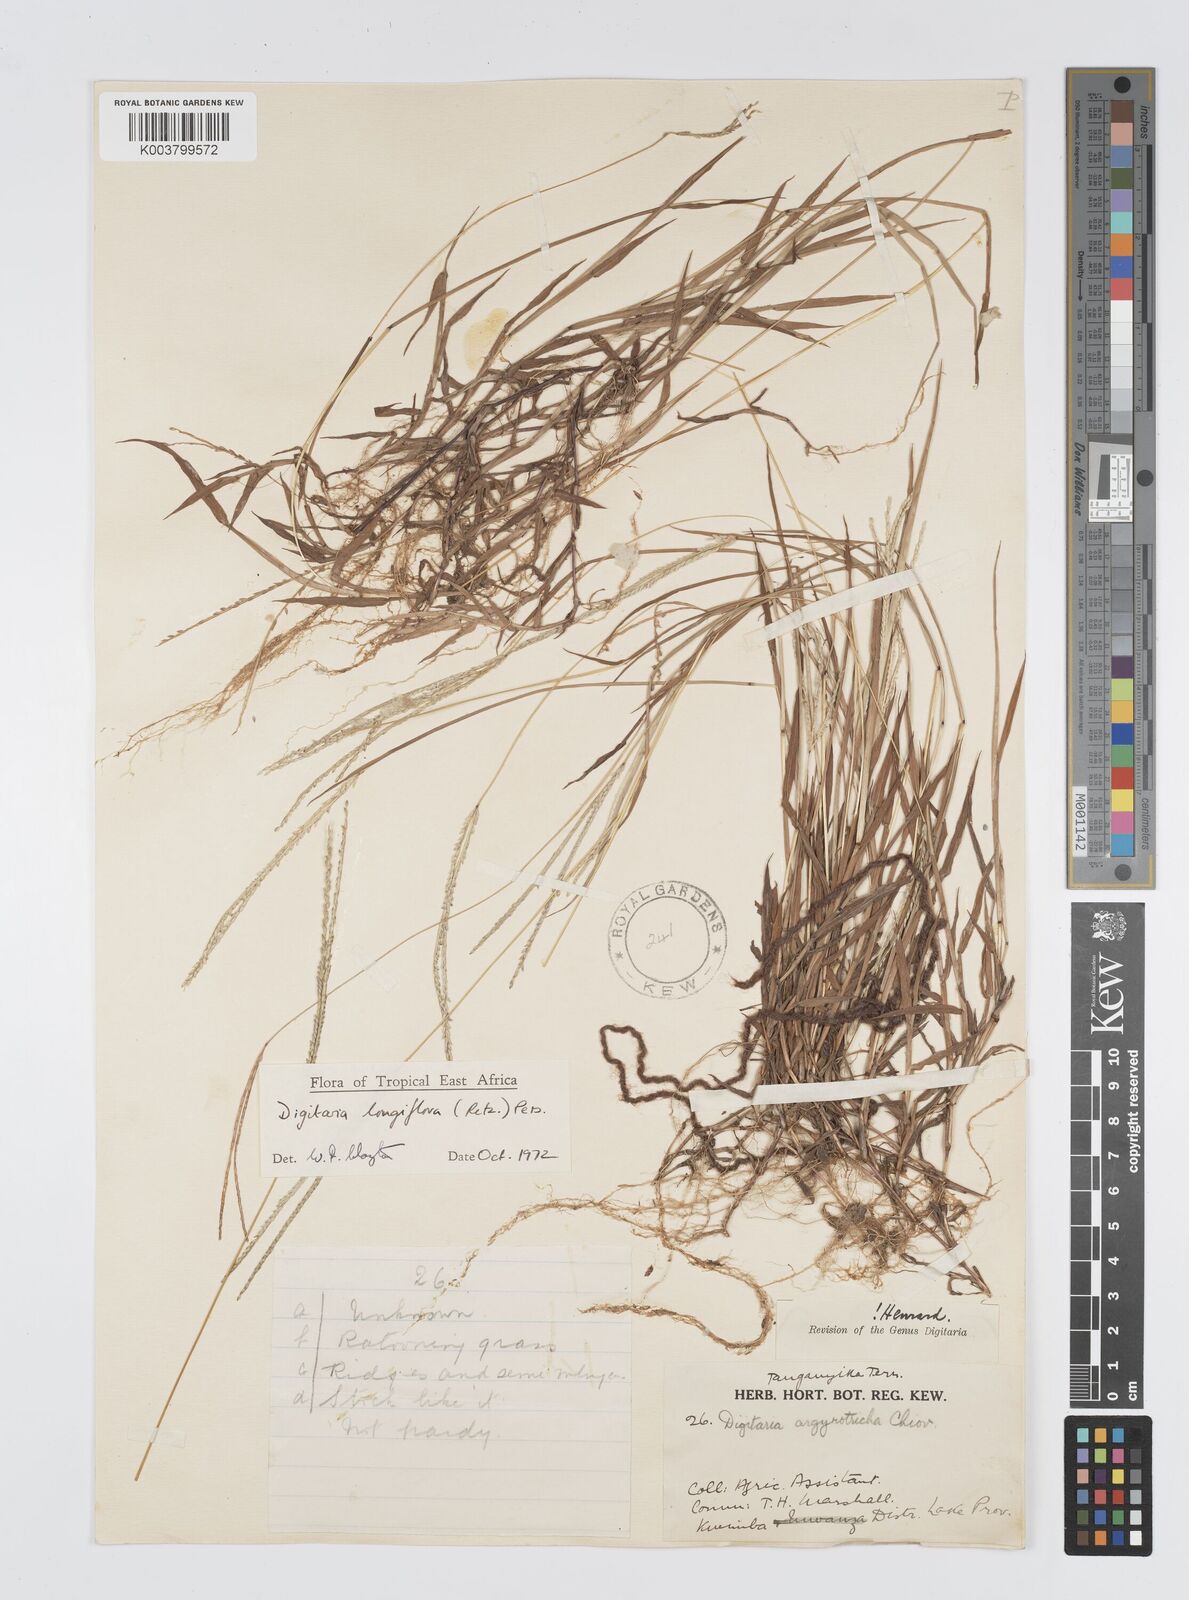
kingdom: Plantae
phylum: Tracheophyta
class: Liliopsida
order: Poales
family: Poaceae
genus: Digitaria
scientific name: Digitaria longiflora
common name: Wire crabgrass
